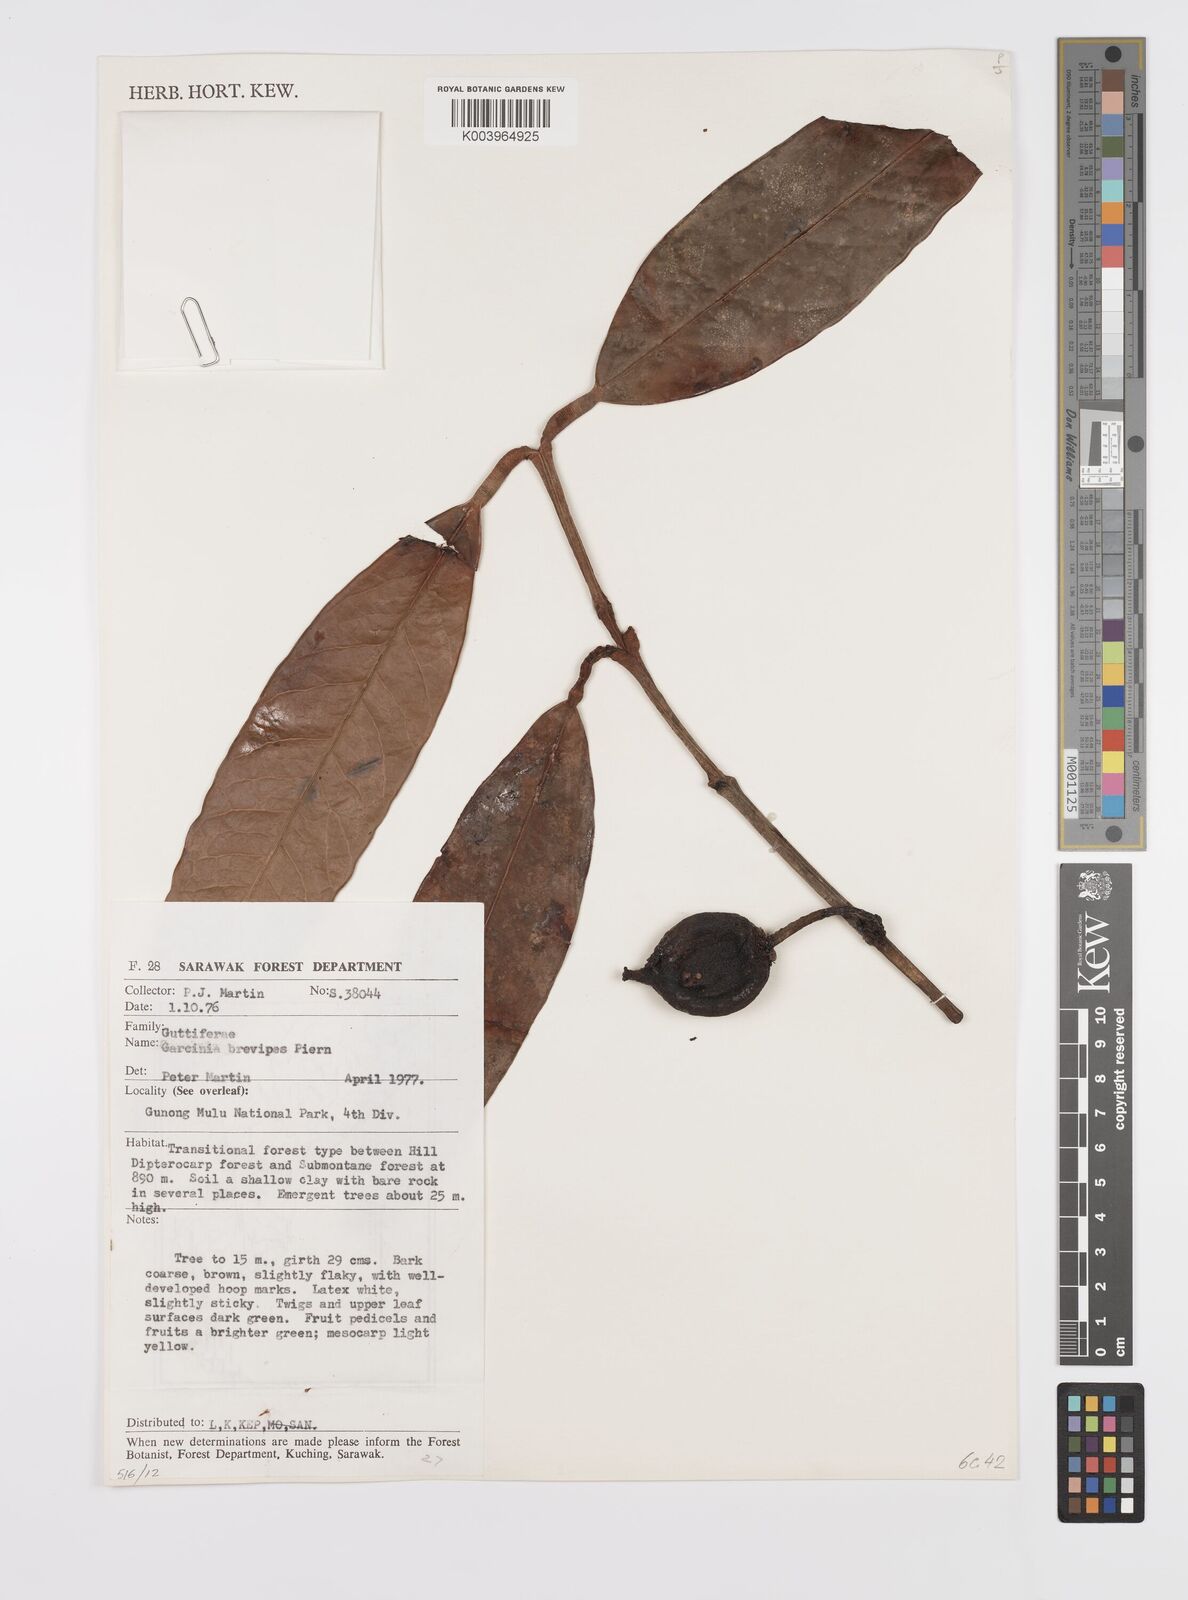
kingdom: Plantae
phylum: Tracheophyta
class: Magnoliopsida
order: Malpighiales
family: Clusiaceae
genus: Garcinia
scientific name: Garcinia brevipes
